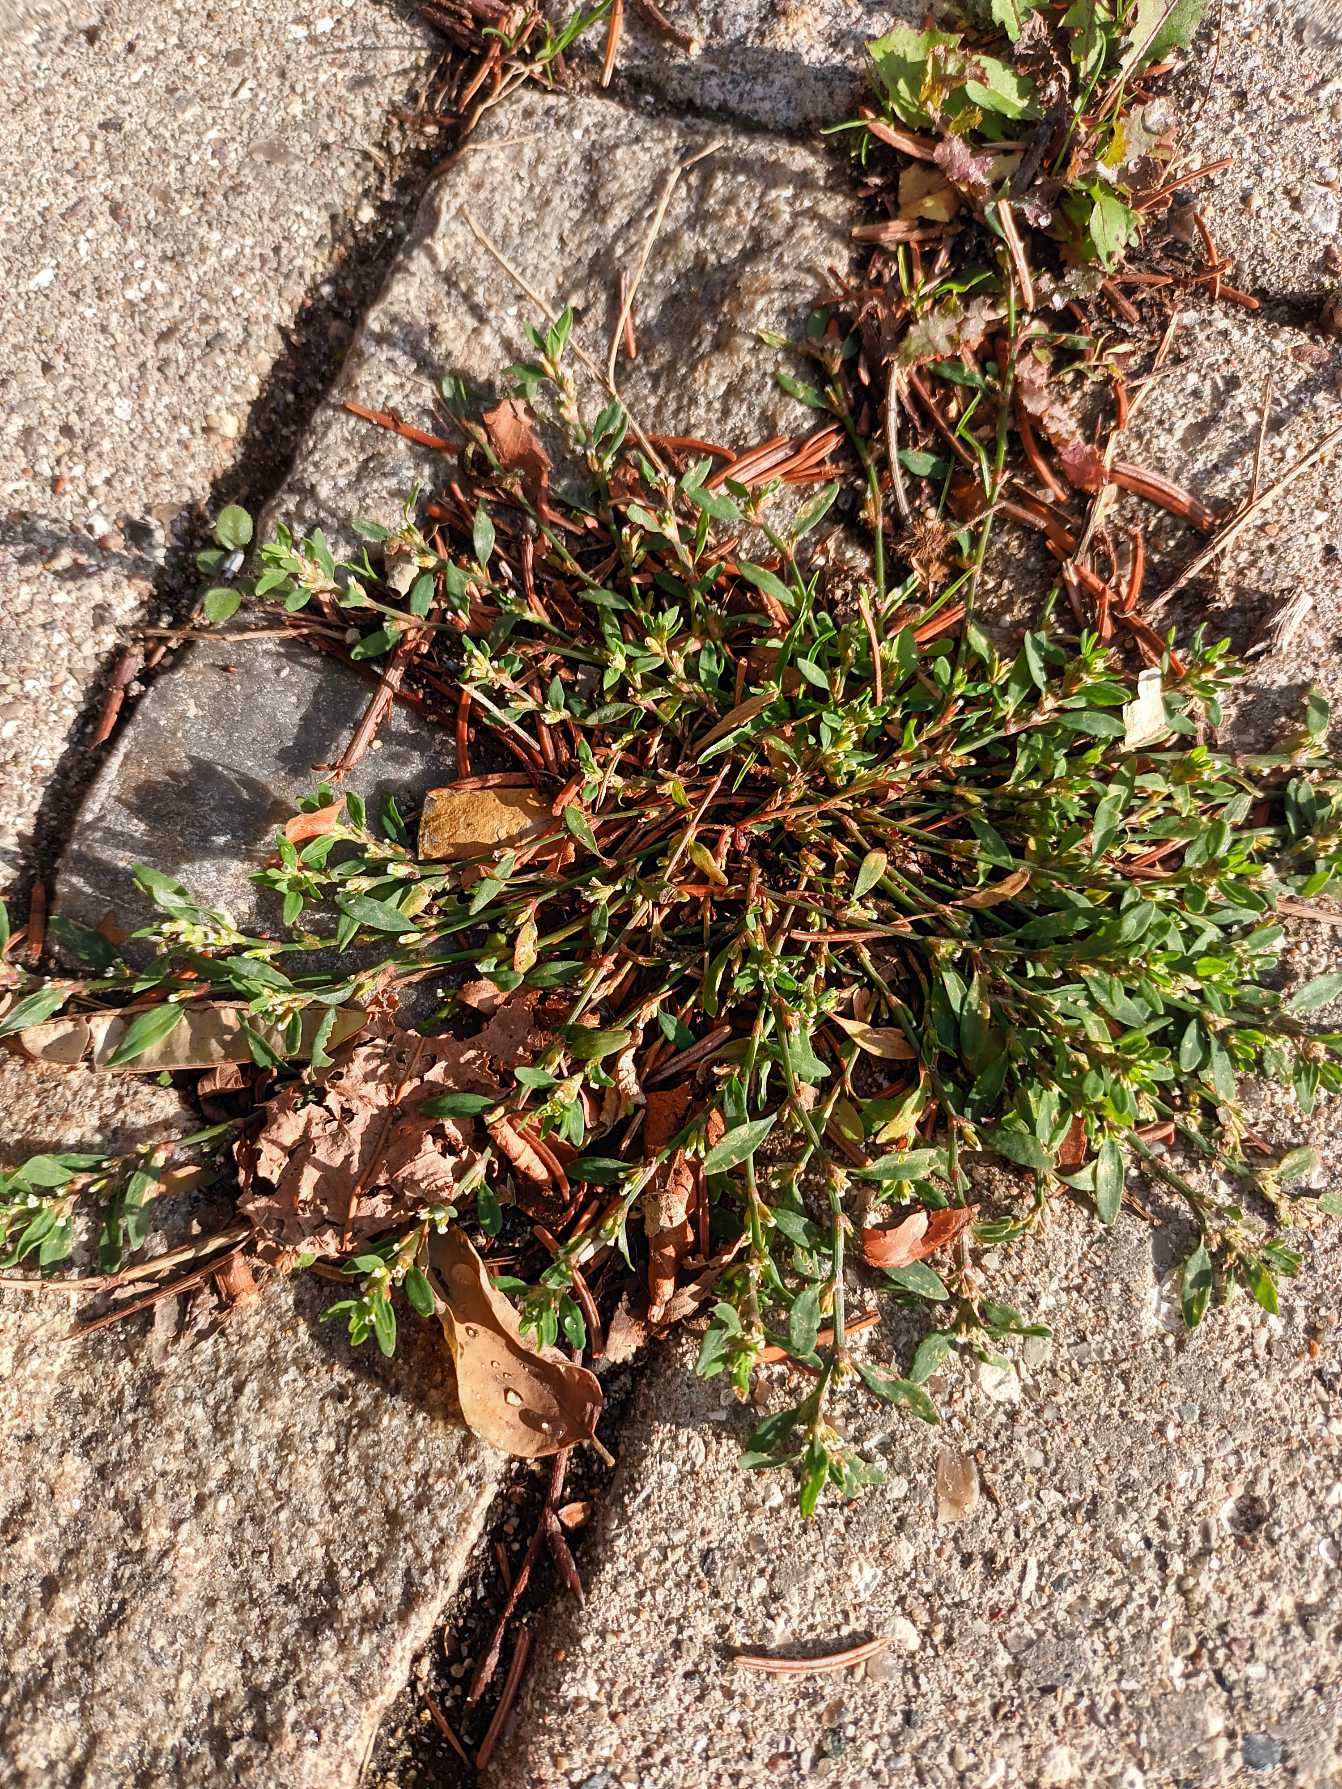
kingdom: Plantae
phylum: Tracheophyta
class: Magnoliopsida
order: Caryophyllales
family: Polygonaceae
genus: Polygonum
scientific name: Polygonum arenastrum
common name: Liggende vej-pileurt
